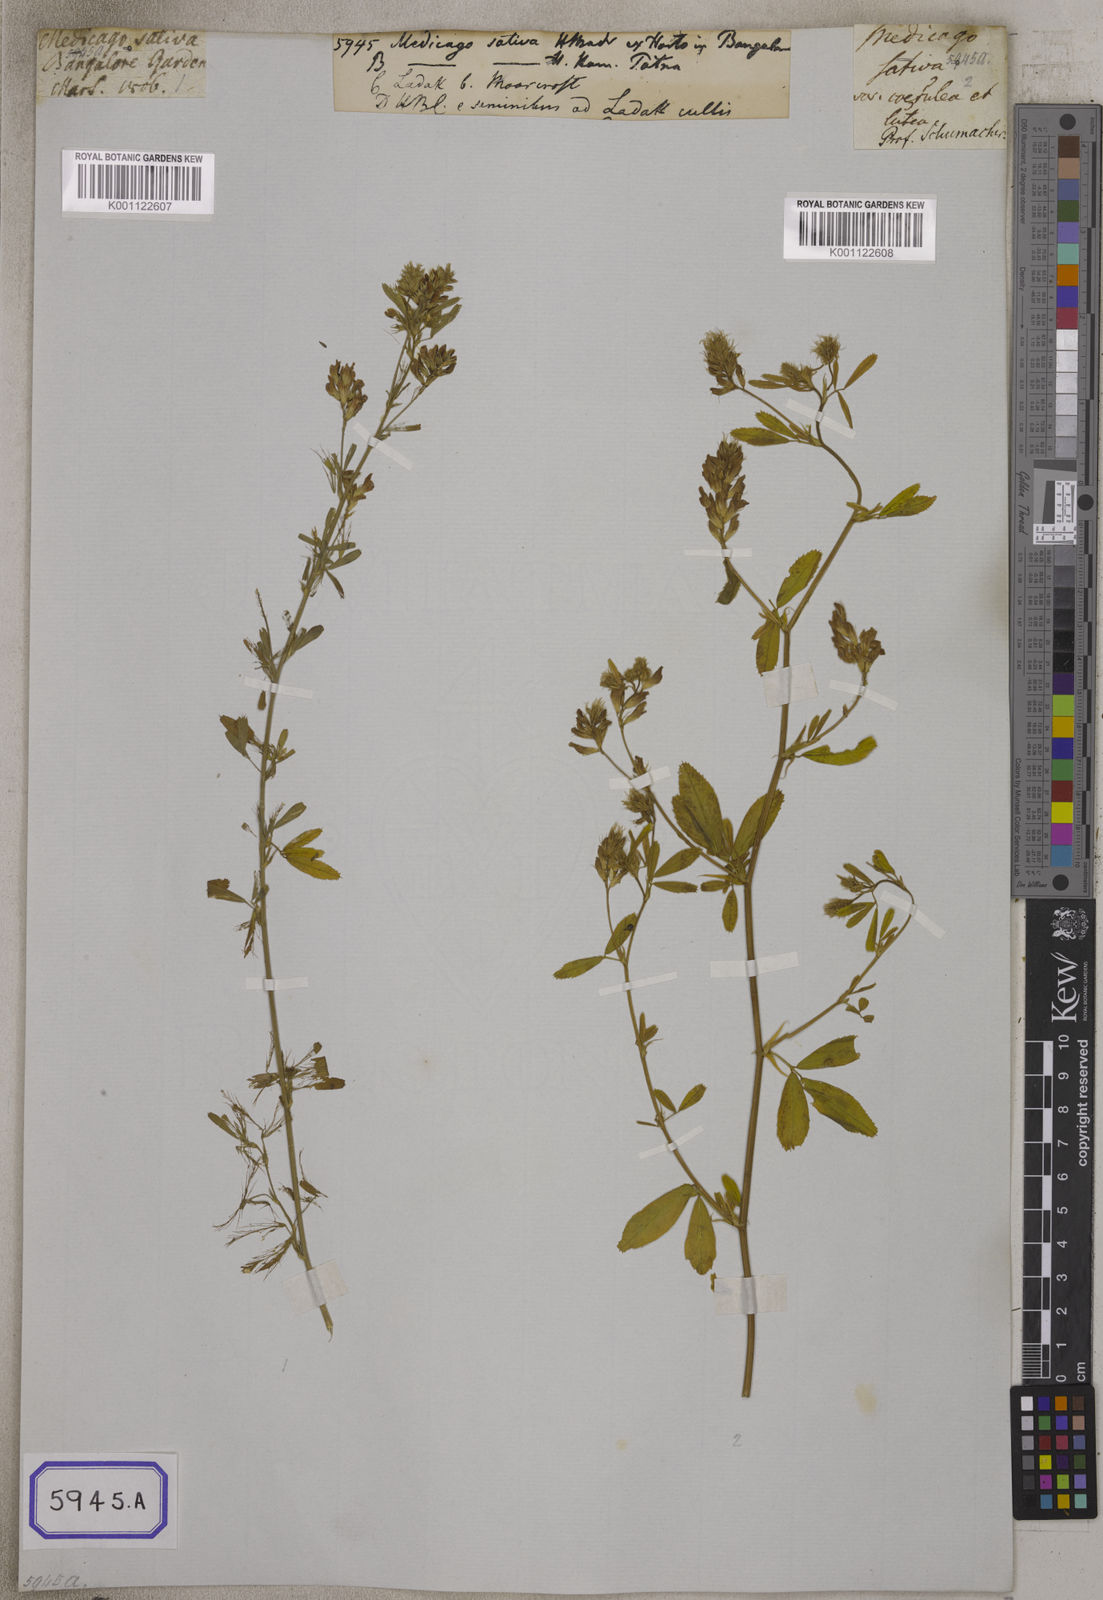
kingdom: Plantae
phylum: Tracheophyta
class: Magnoliopsida
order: Fabales
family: Fabaceae
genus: Medicago
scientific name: Medicago sativa
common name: Alfalfa
